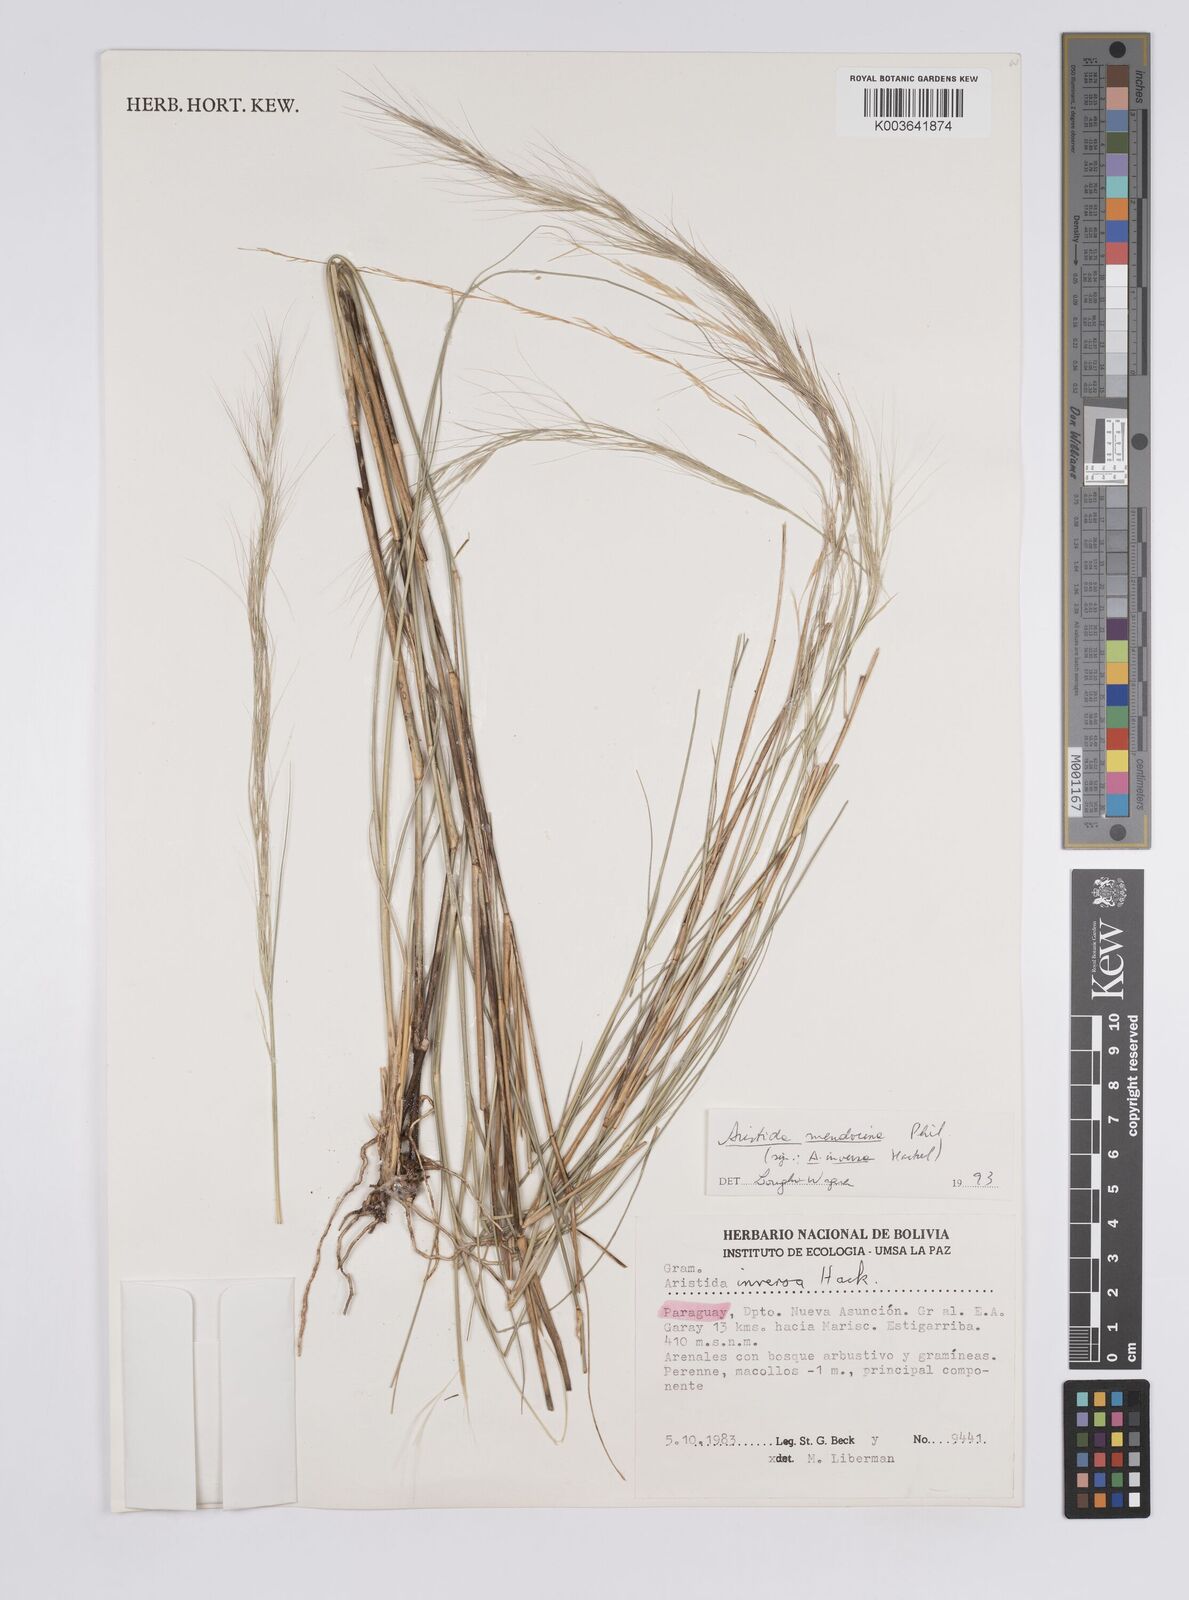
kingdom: Plantae
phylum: Tracheophyta
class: Liliopsida
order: Poales
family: Poaceae
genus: Aristida
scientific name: Aristida mendocina
